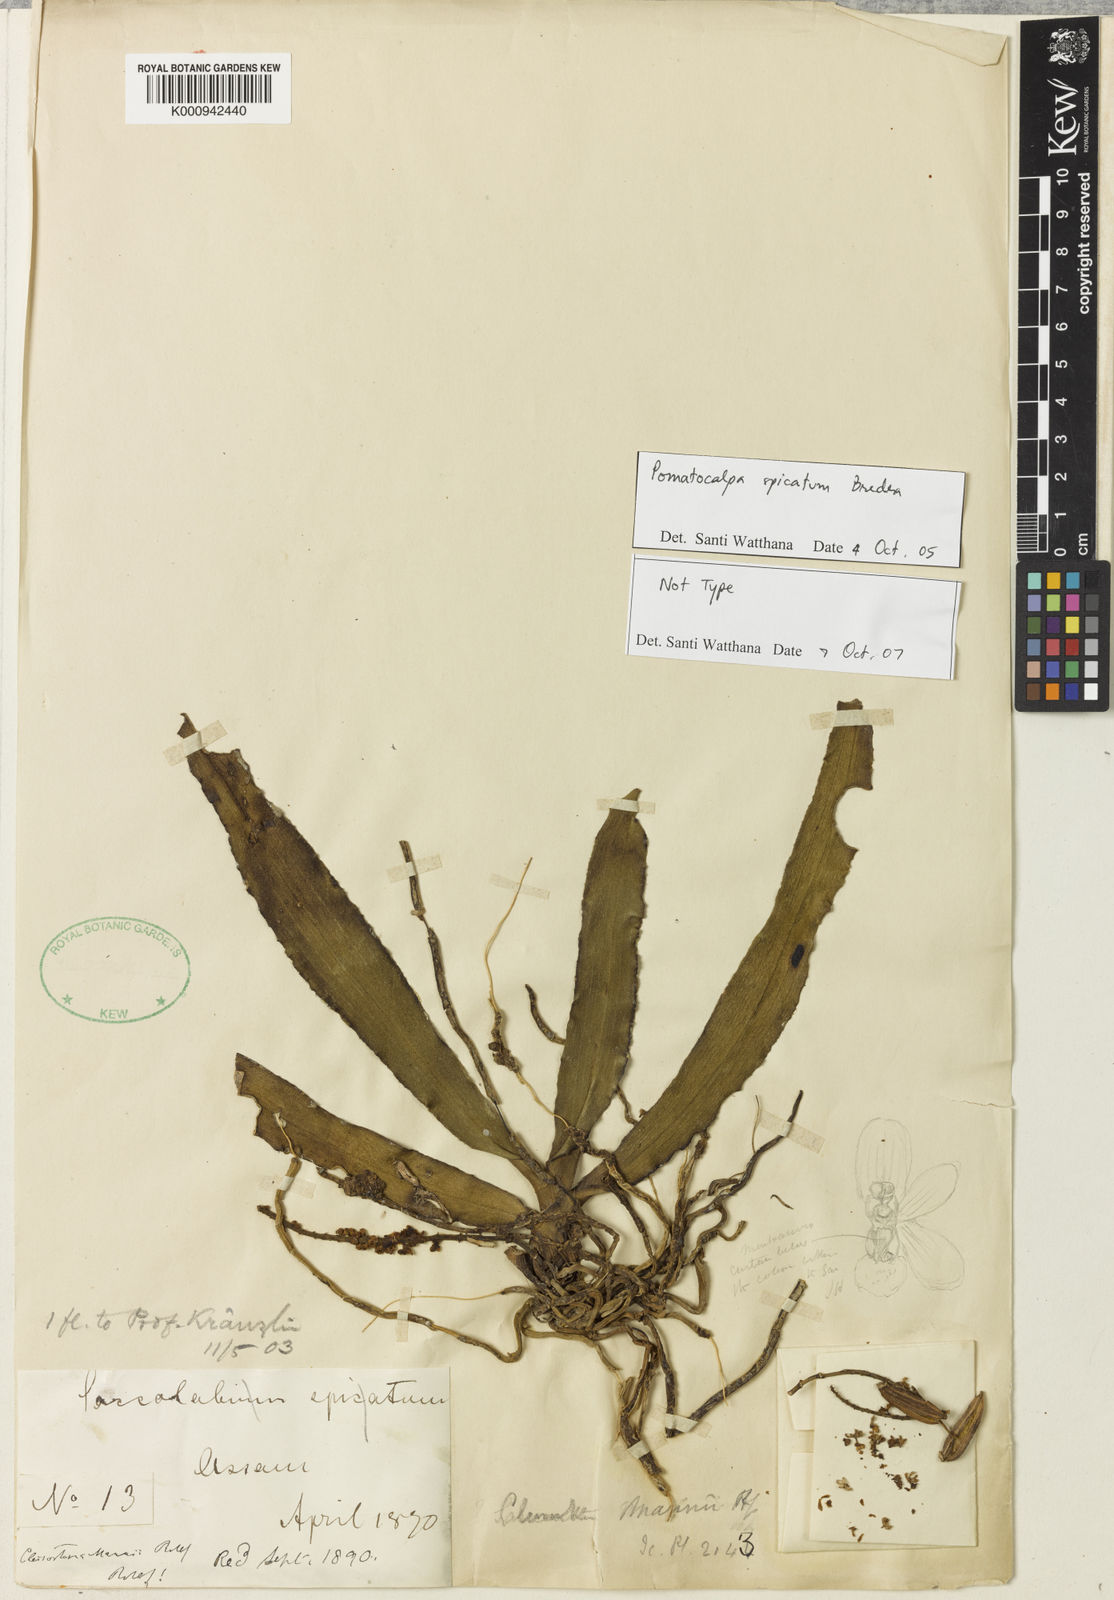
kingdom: Plantae
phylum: Tracheophyta
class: Liliopsida
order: Asparagales
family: Orchidaceae
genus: Pomatocalpa
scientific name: Pomatocalpa spicatum
